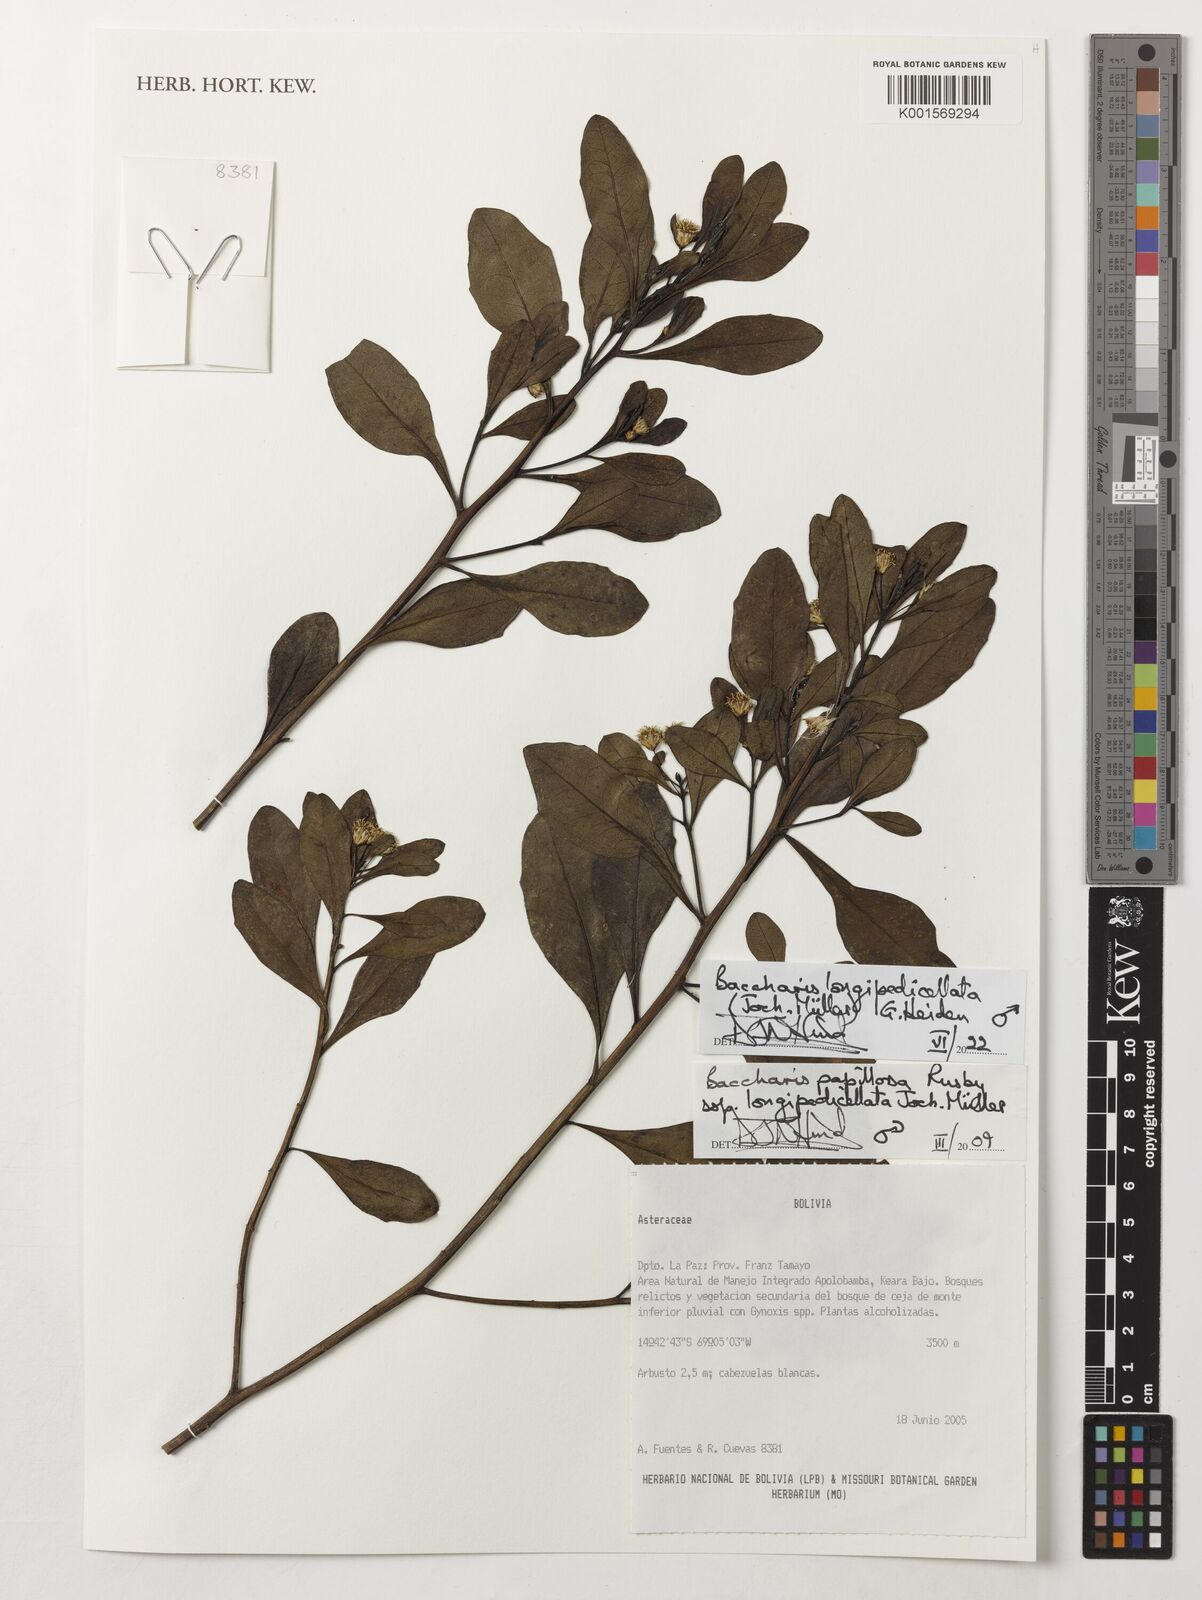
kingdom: Plantae
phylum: Tracheophyta
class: Magnoliopsida
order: Asterales
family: Asteraceae
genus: Baccharis
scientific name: Baccharis
